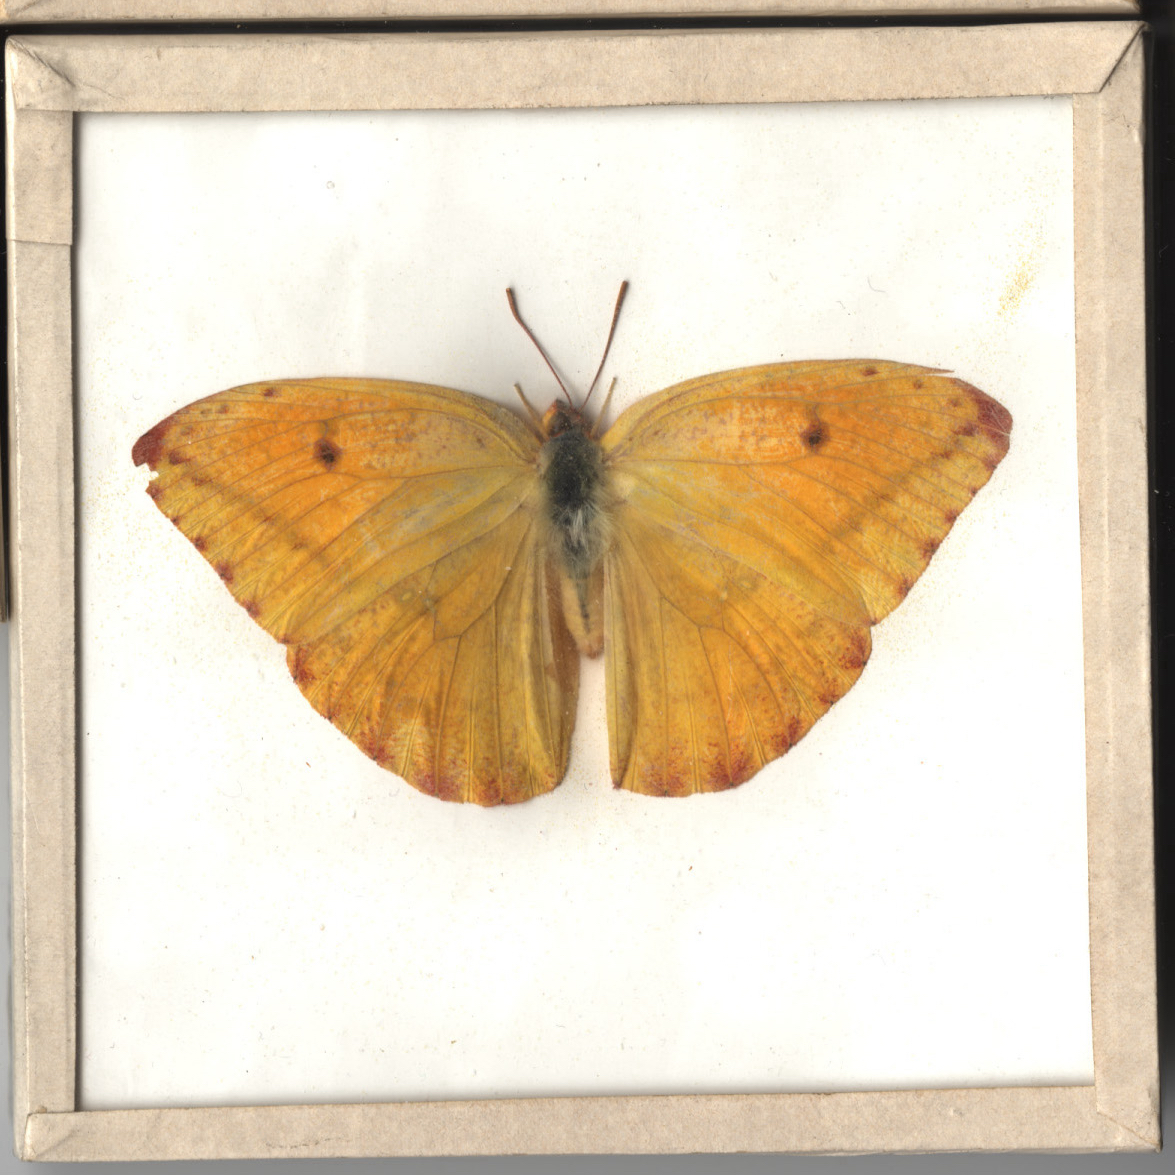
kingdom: Animalia
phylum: Arthropoda
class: Insecta
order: Lepidoptera
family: Pieridae
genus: Phoebis
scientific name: Phoebis agarithe
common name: Large Orange Sulphur
